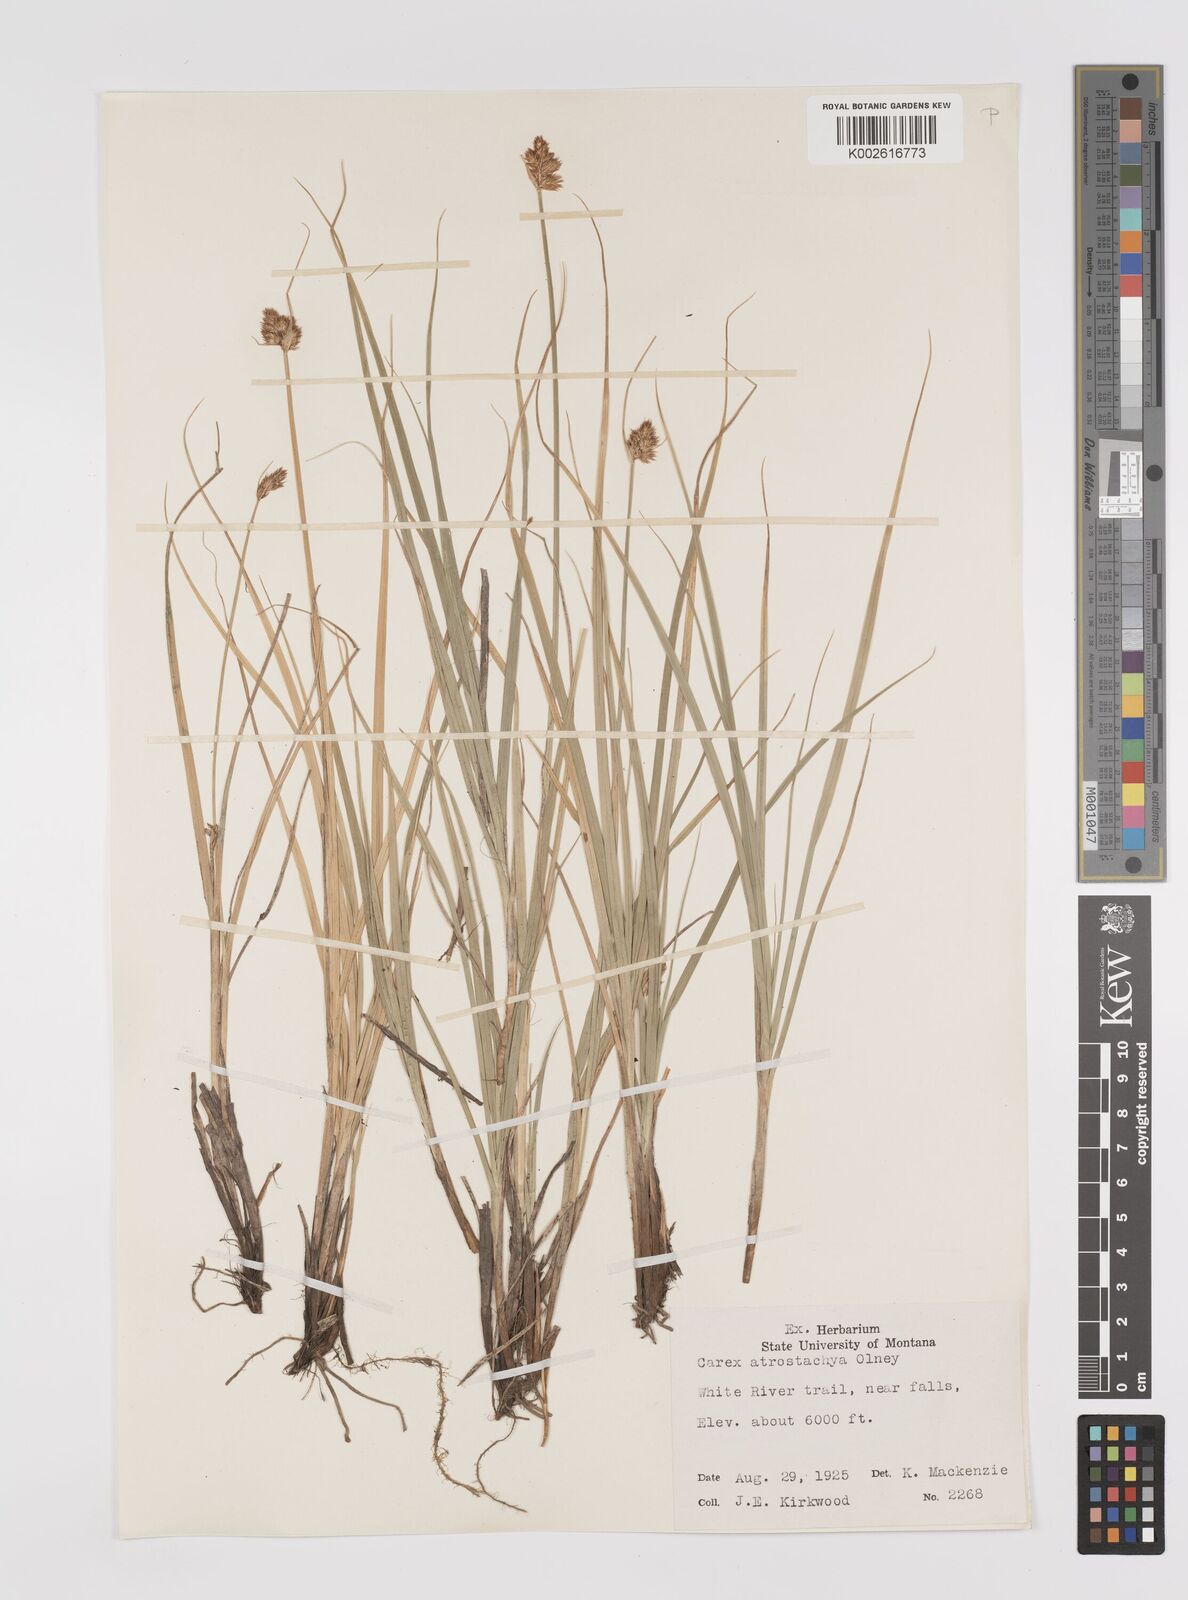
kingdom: Plantae
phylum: Tracheophyta
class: Liliopsida
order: Poales
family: Cyperaceae
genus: Carex
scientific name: Carex athrostachya
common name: Slenderbeak sedge
